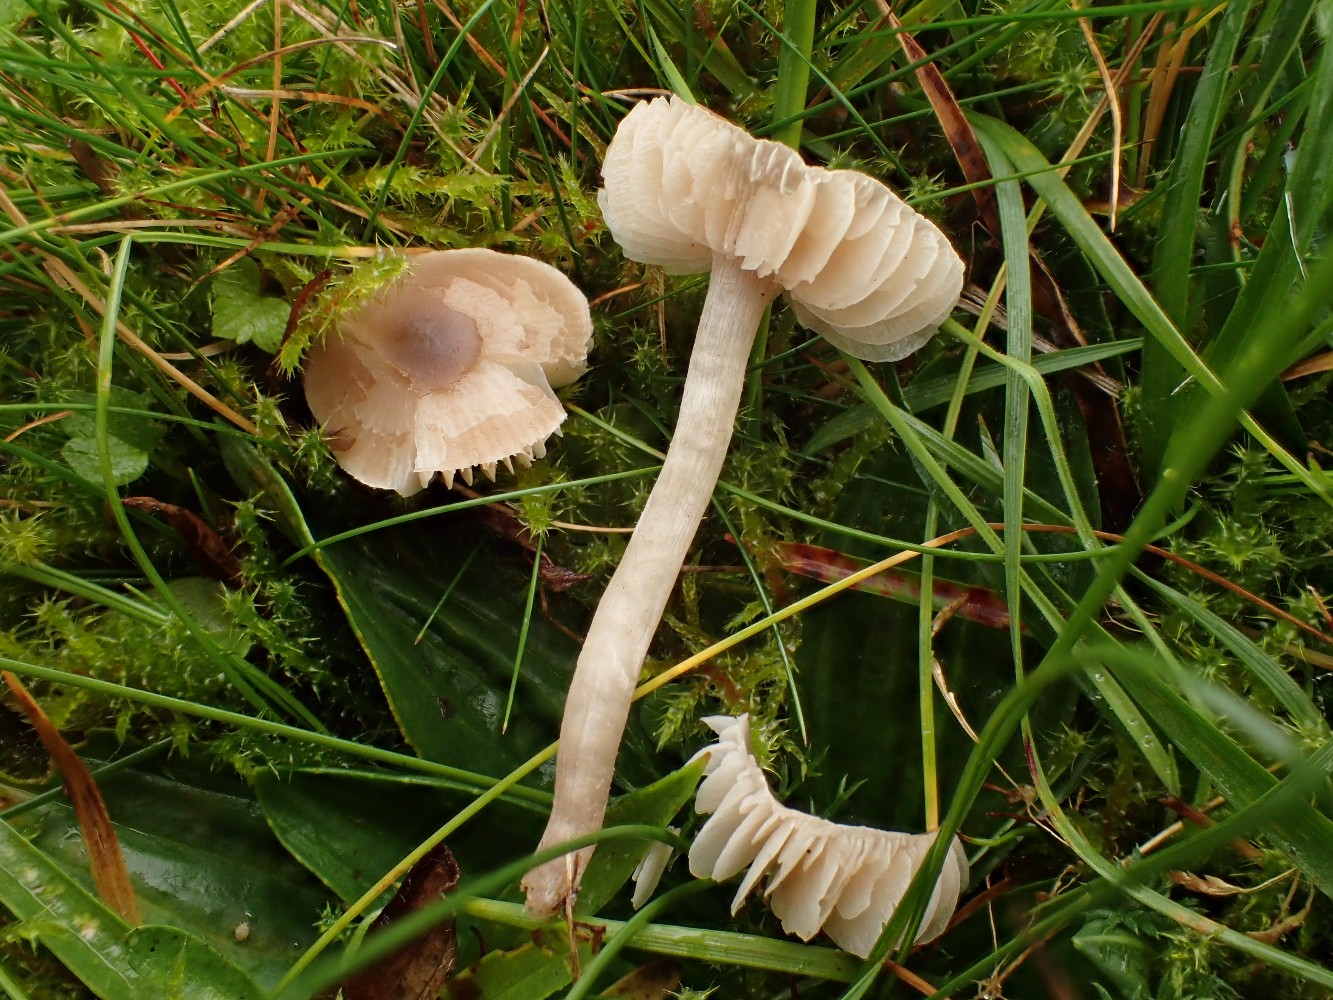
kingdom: Fungi
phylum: Basidiomycota
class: Agaricomycetes
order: Agaricales
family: Tricholomataceae
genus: Dermoloma
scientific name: Dermoloma cuneifolium
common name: eng-nonnehat
